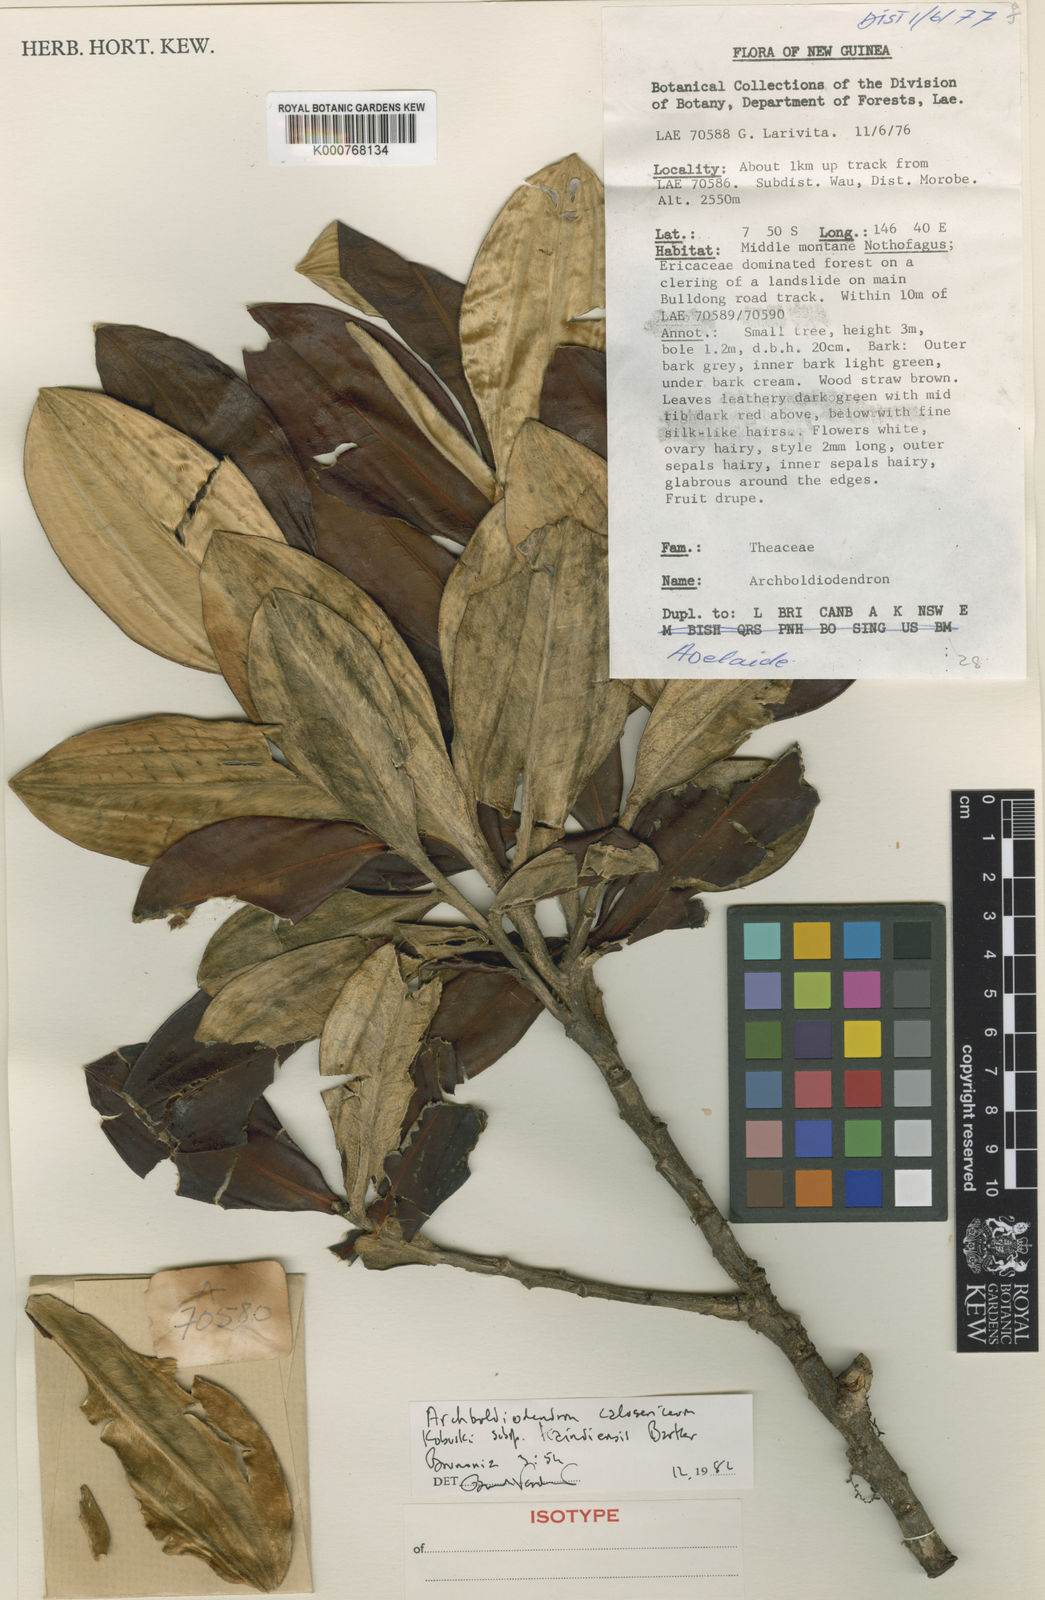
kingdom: Plantae
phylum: Tracheophyta
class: Magnoliopsida
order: Ericales
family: Pentaphylacaceae
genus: Archboldiodendron
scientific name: Archboldiodendron calosericeum
